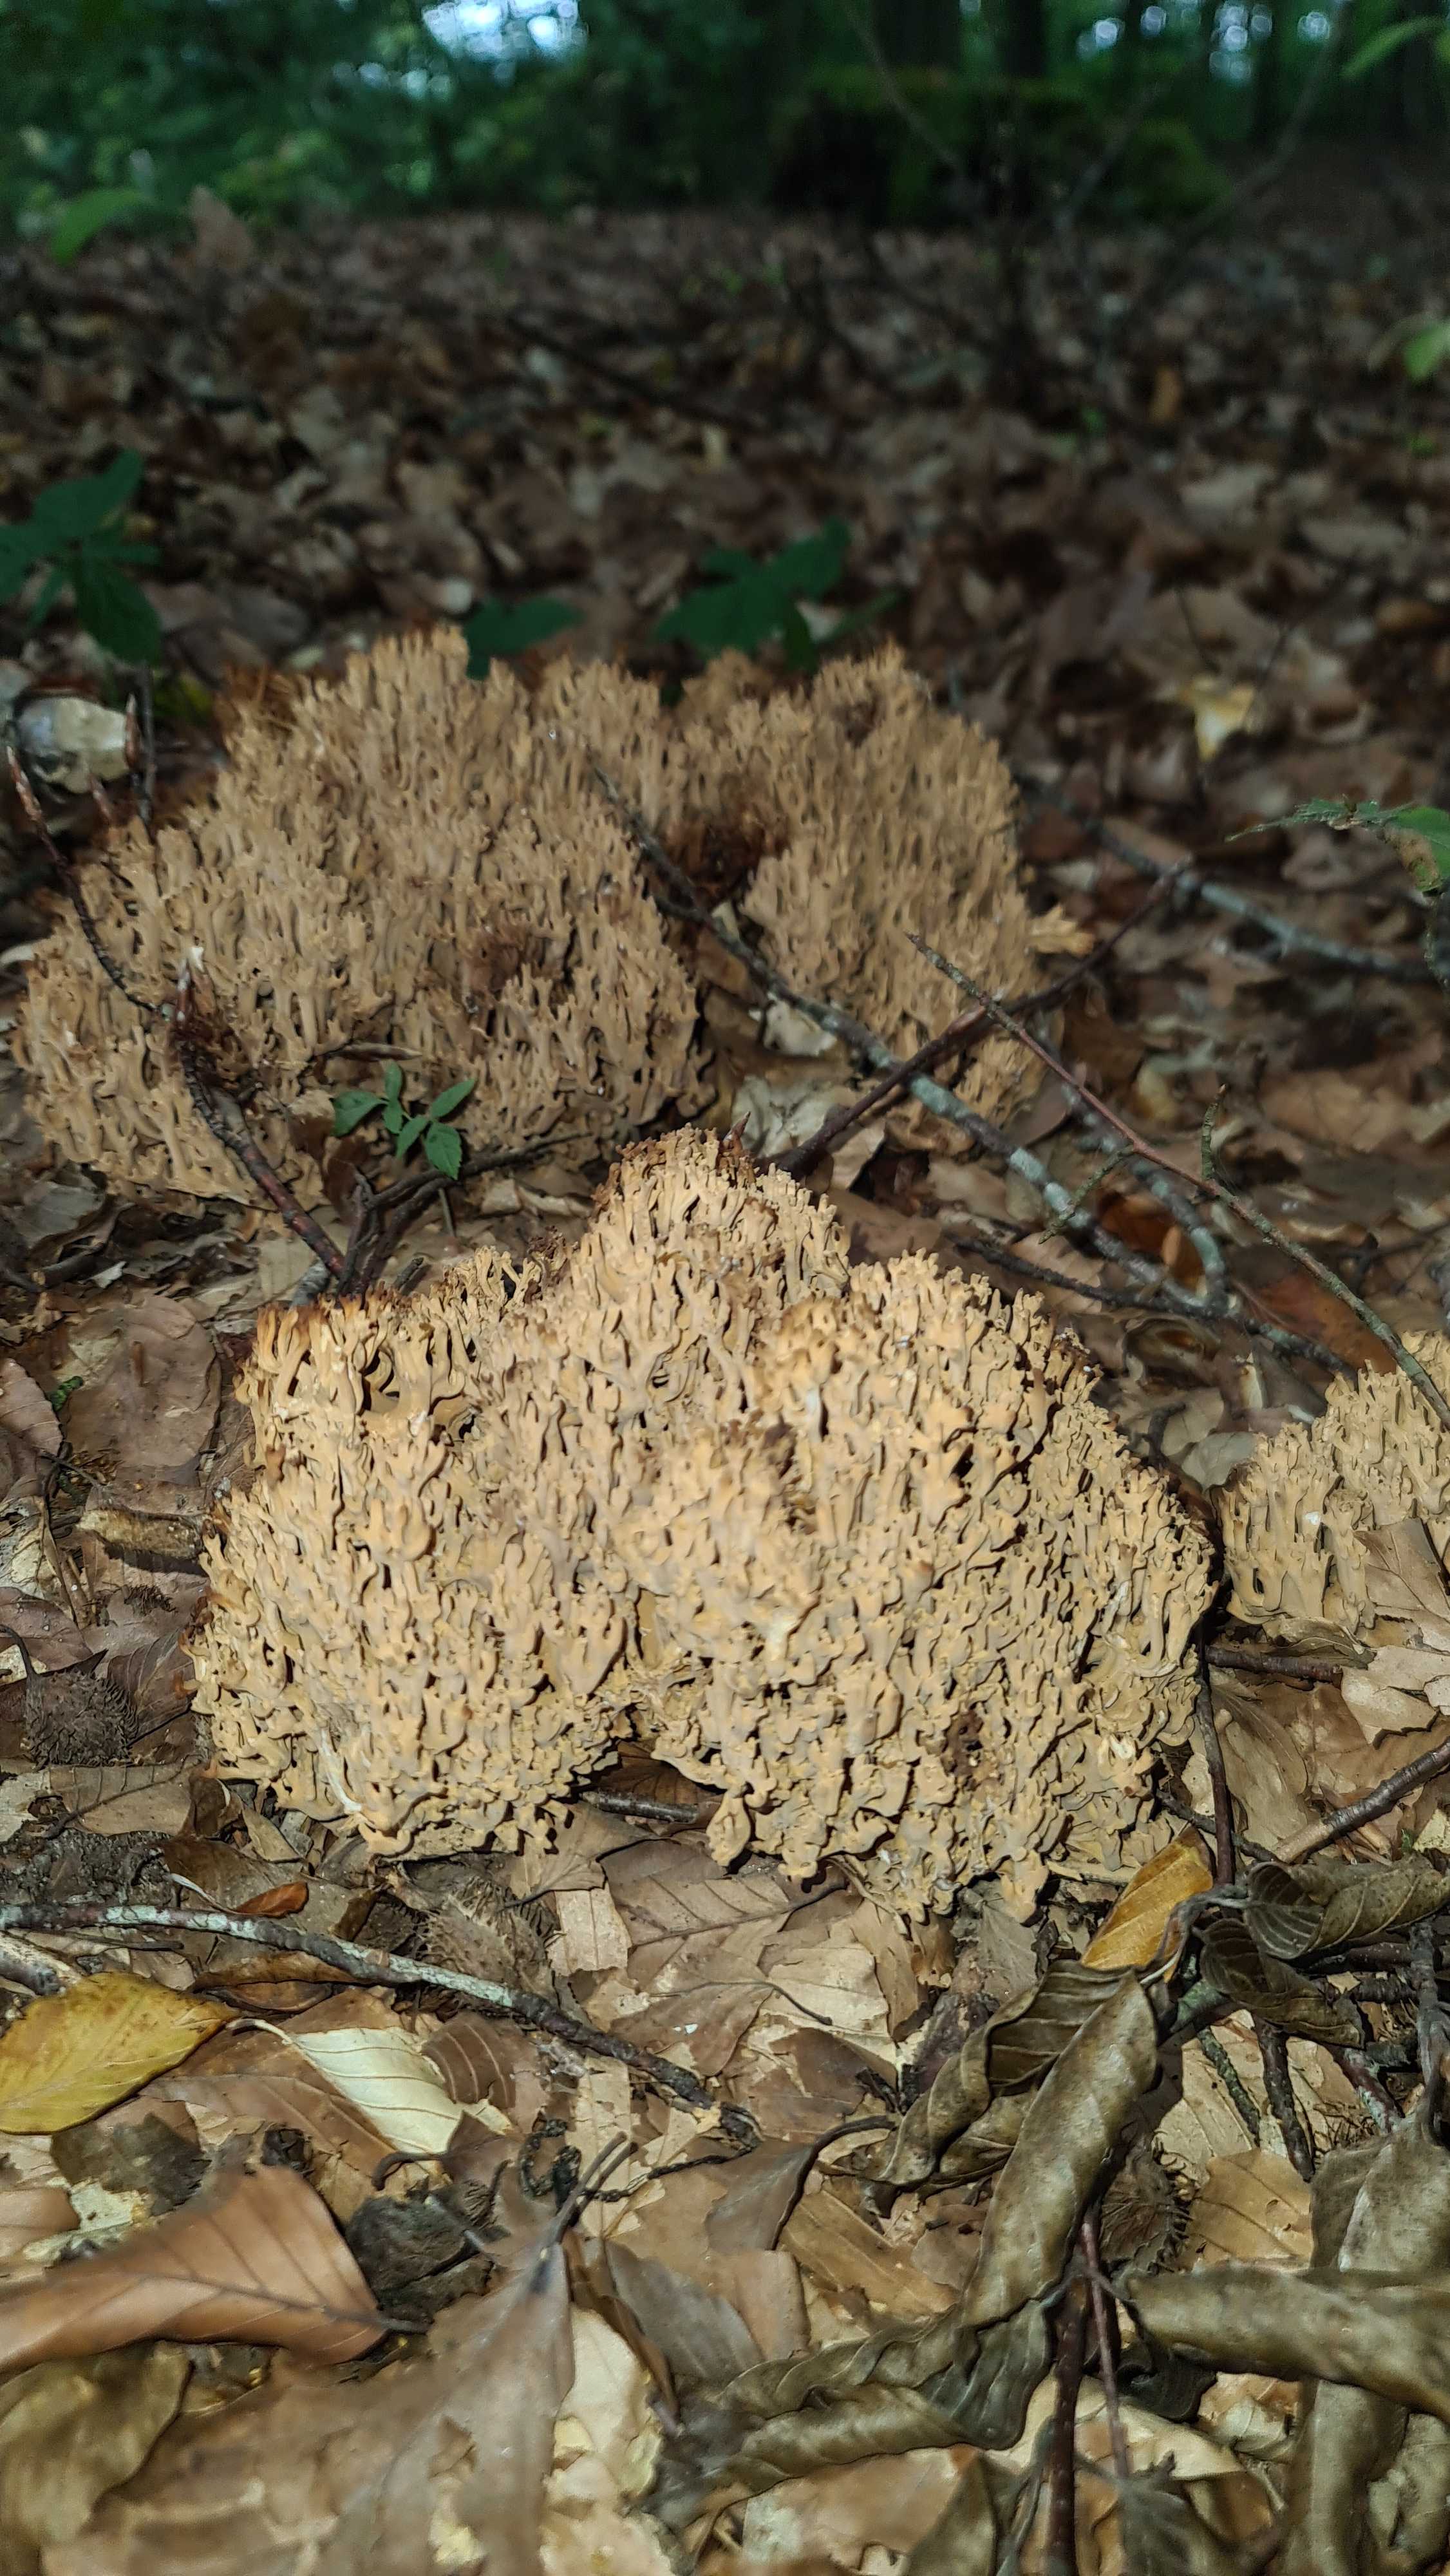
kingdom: Fungi
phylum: Basidiomycota
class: Agaricomycetes
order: Gomphales
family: Gomphaceae
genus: Ramaria
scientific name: Ramaria
